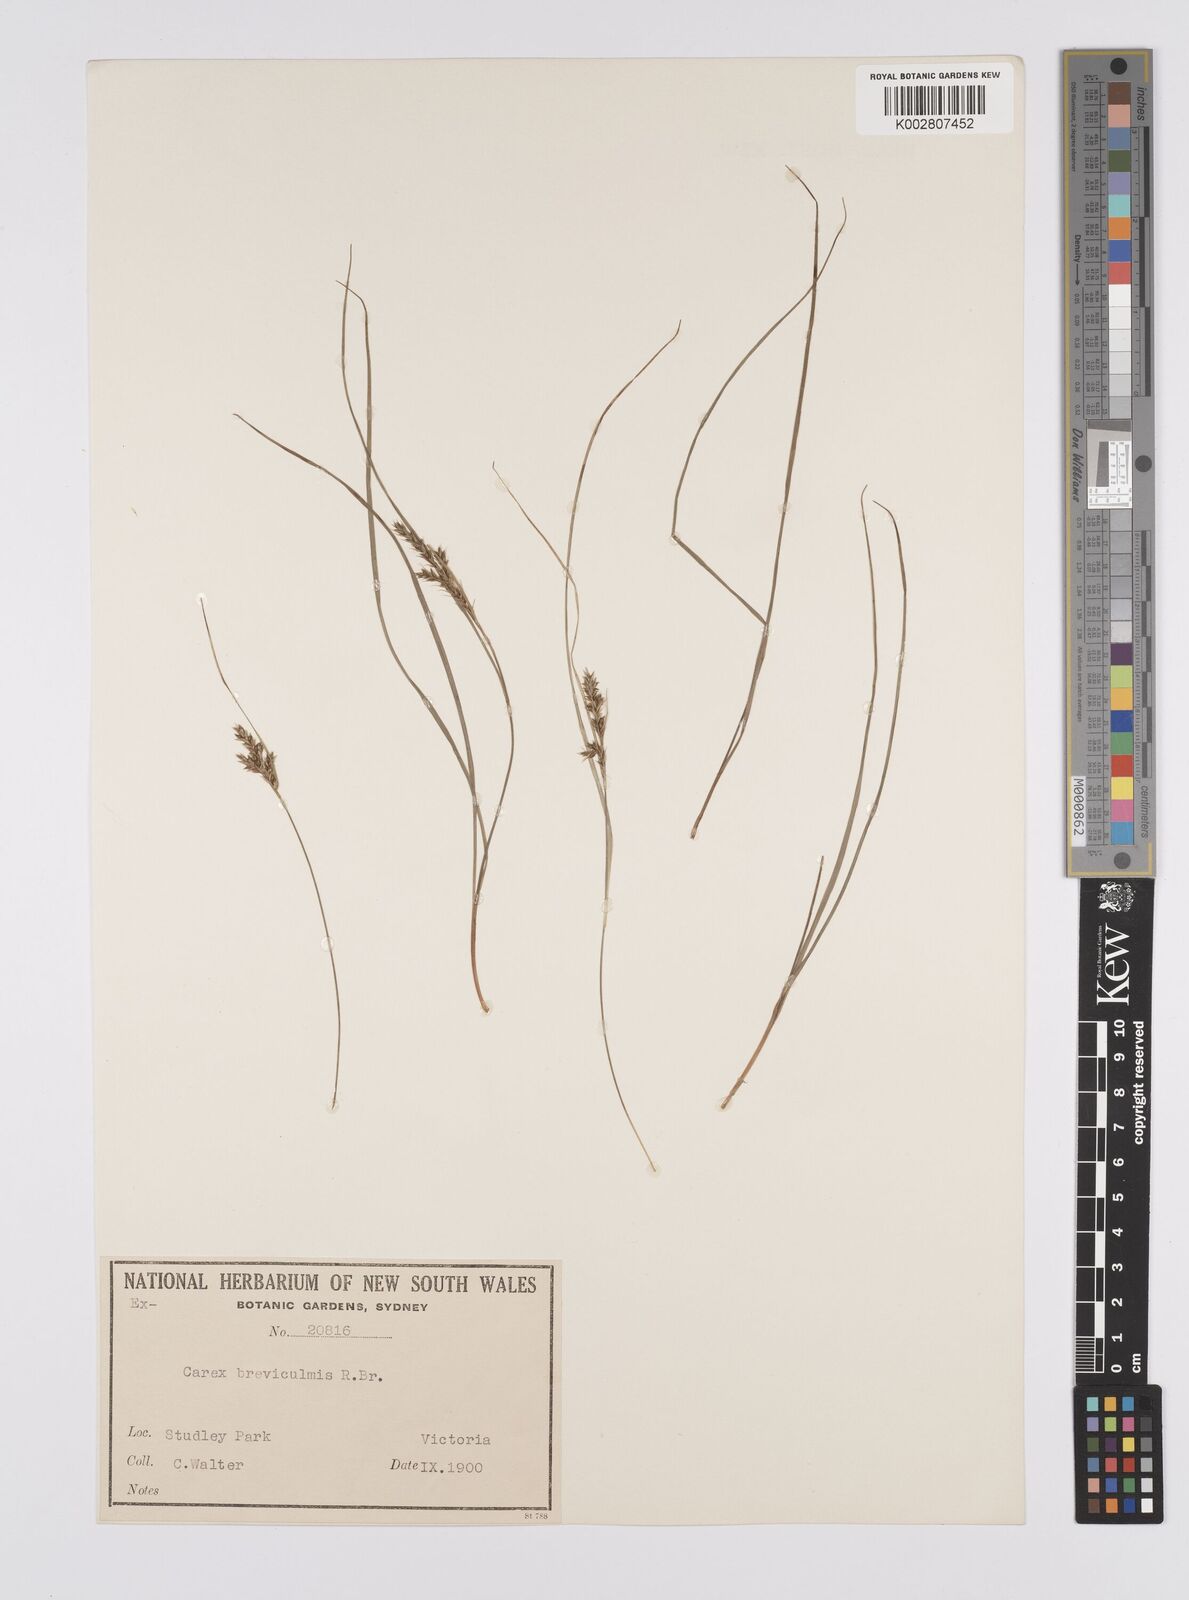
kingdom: Plantae
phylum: Tracheophyta
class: Liliopsida
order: Poales
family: Cyperaceae
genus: Carex
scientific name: Carex breviculmis
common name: Asian shortstem sedge
